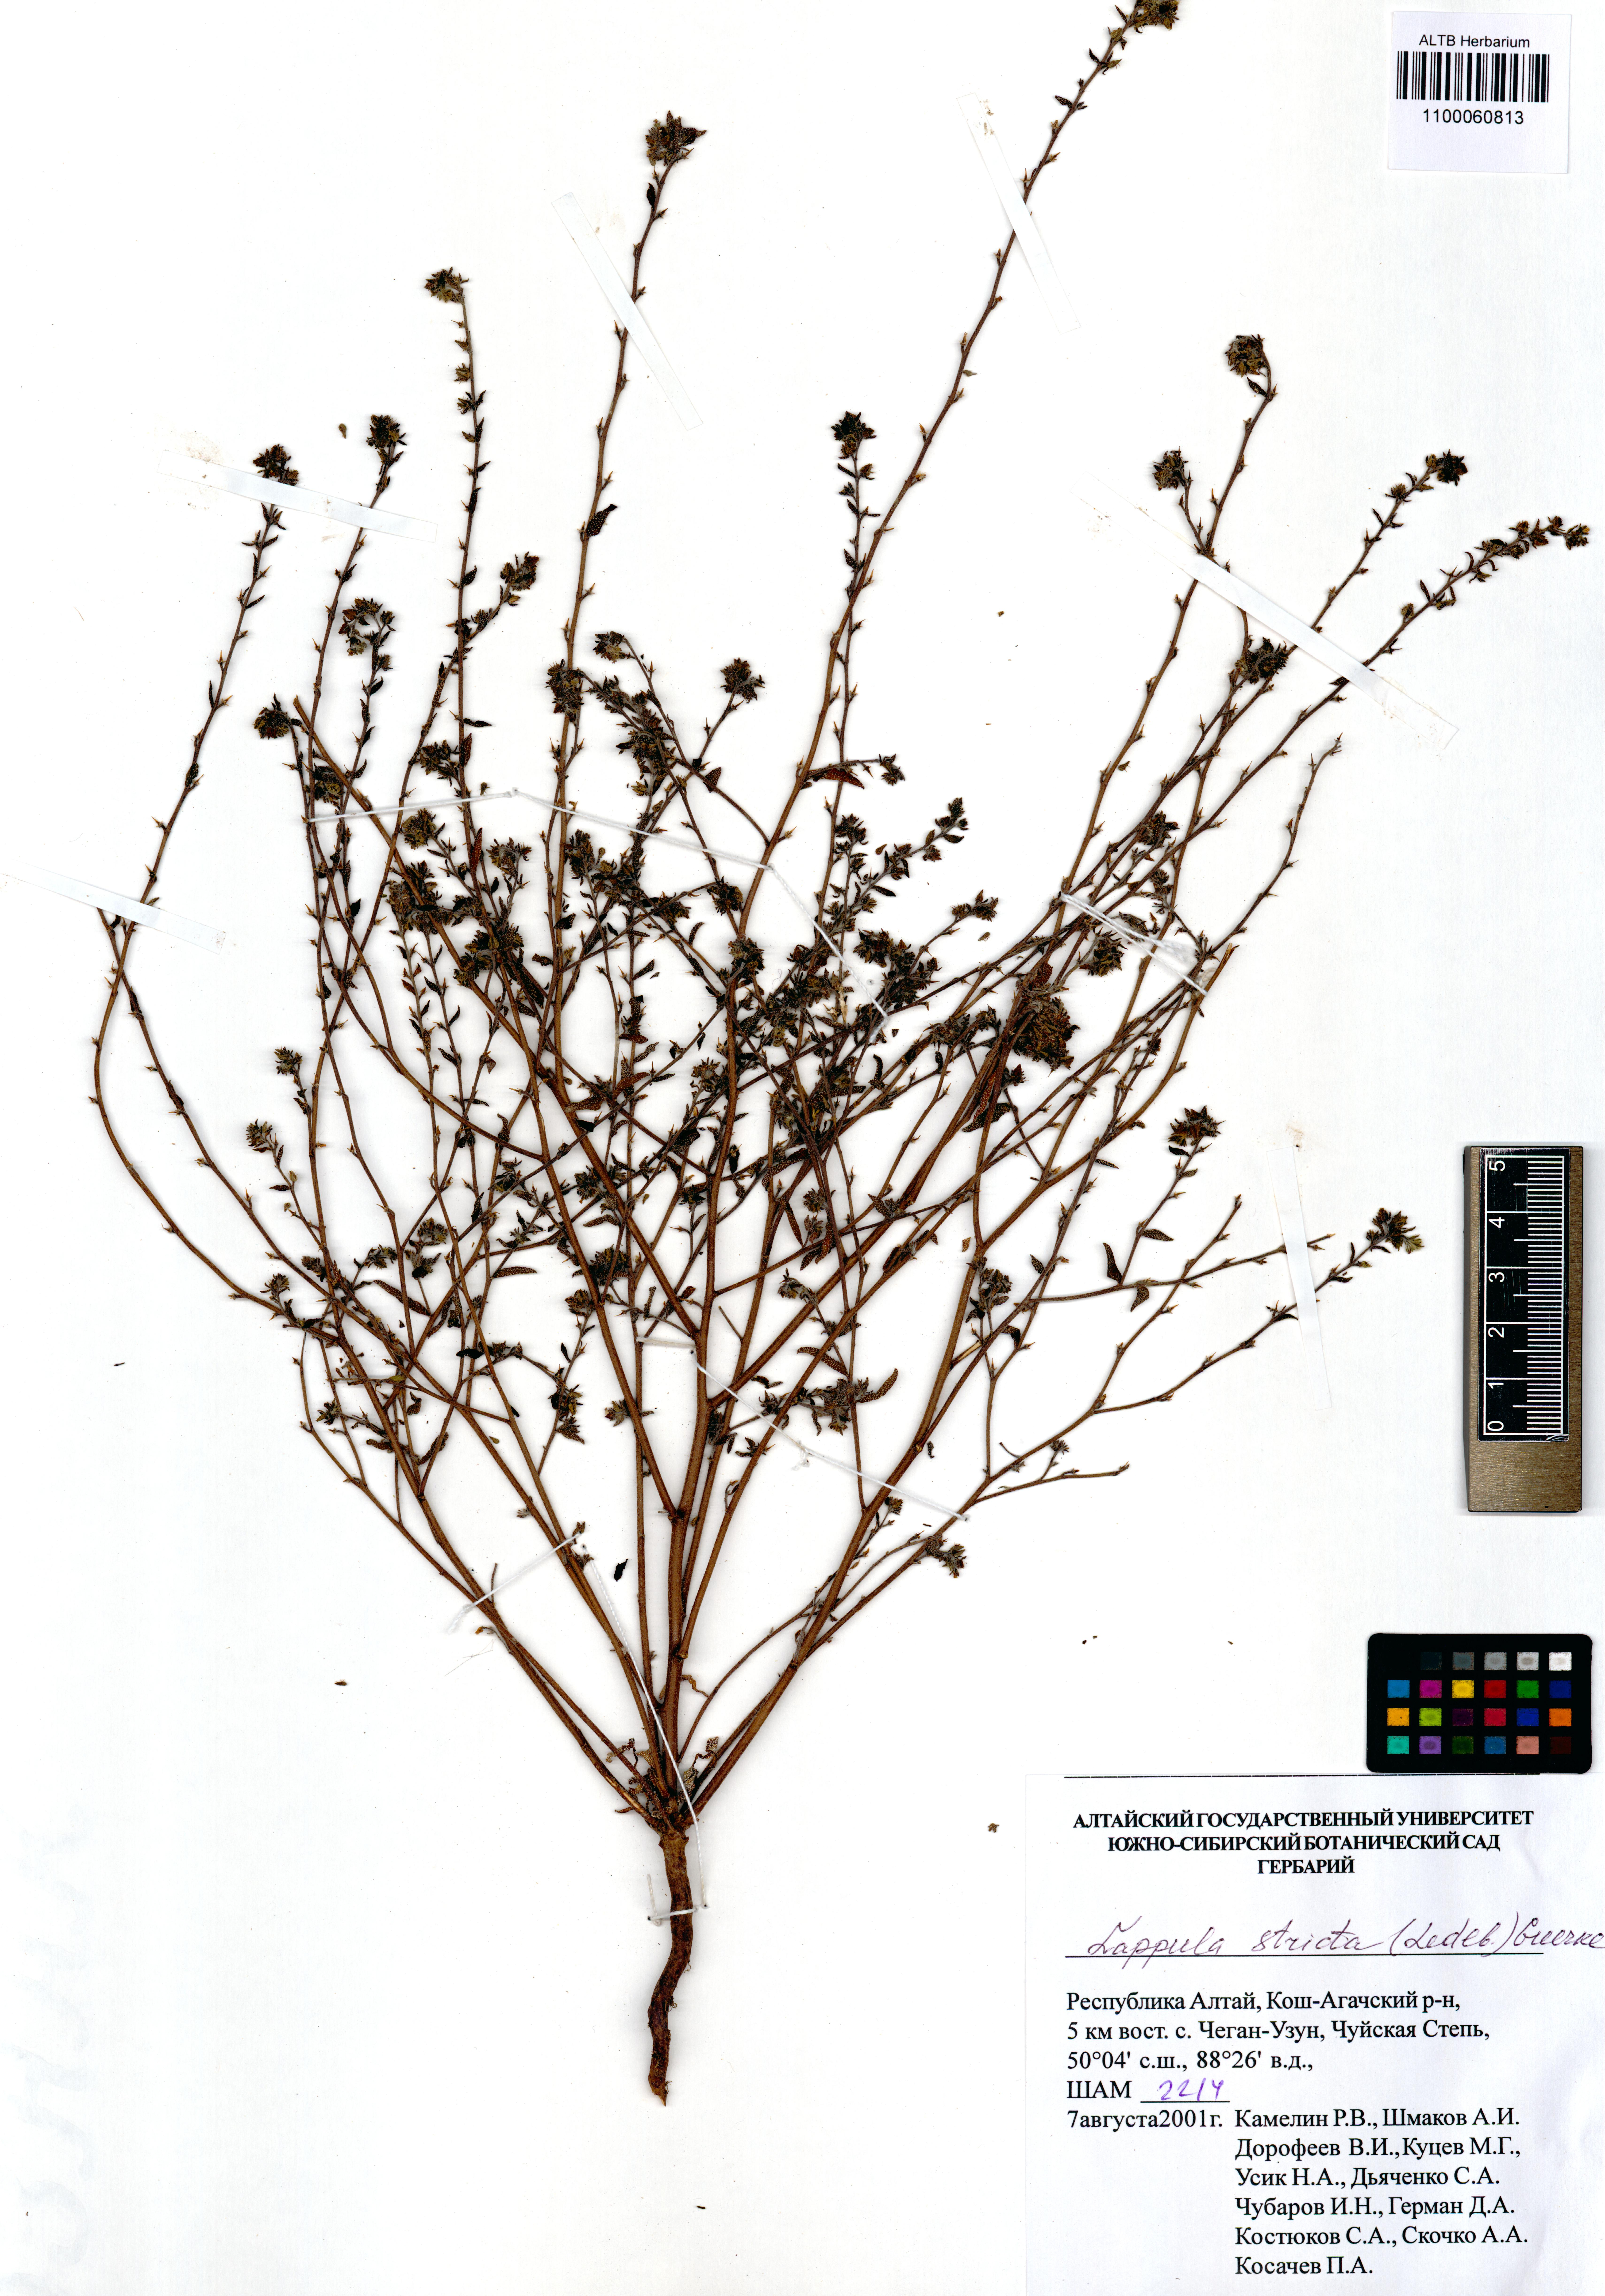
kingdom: Plantae
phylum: Tracheophyta
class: Magnoliopsida
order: Boraginales
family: Boraginaceae
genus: Lappula
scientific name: Lappula stricta
